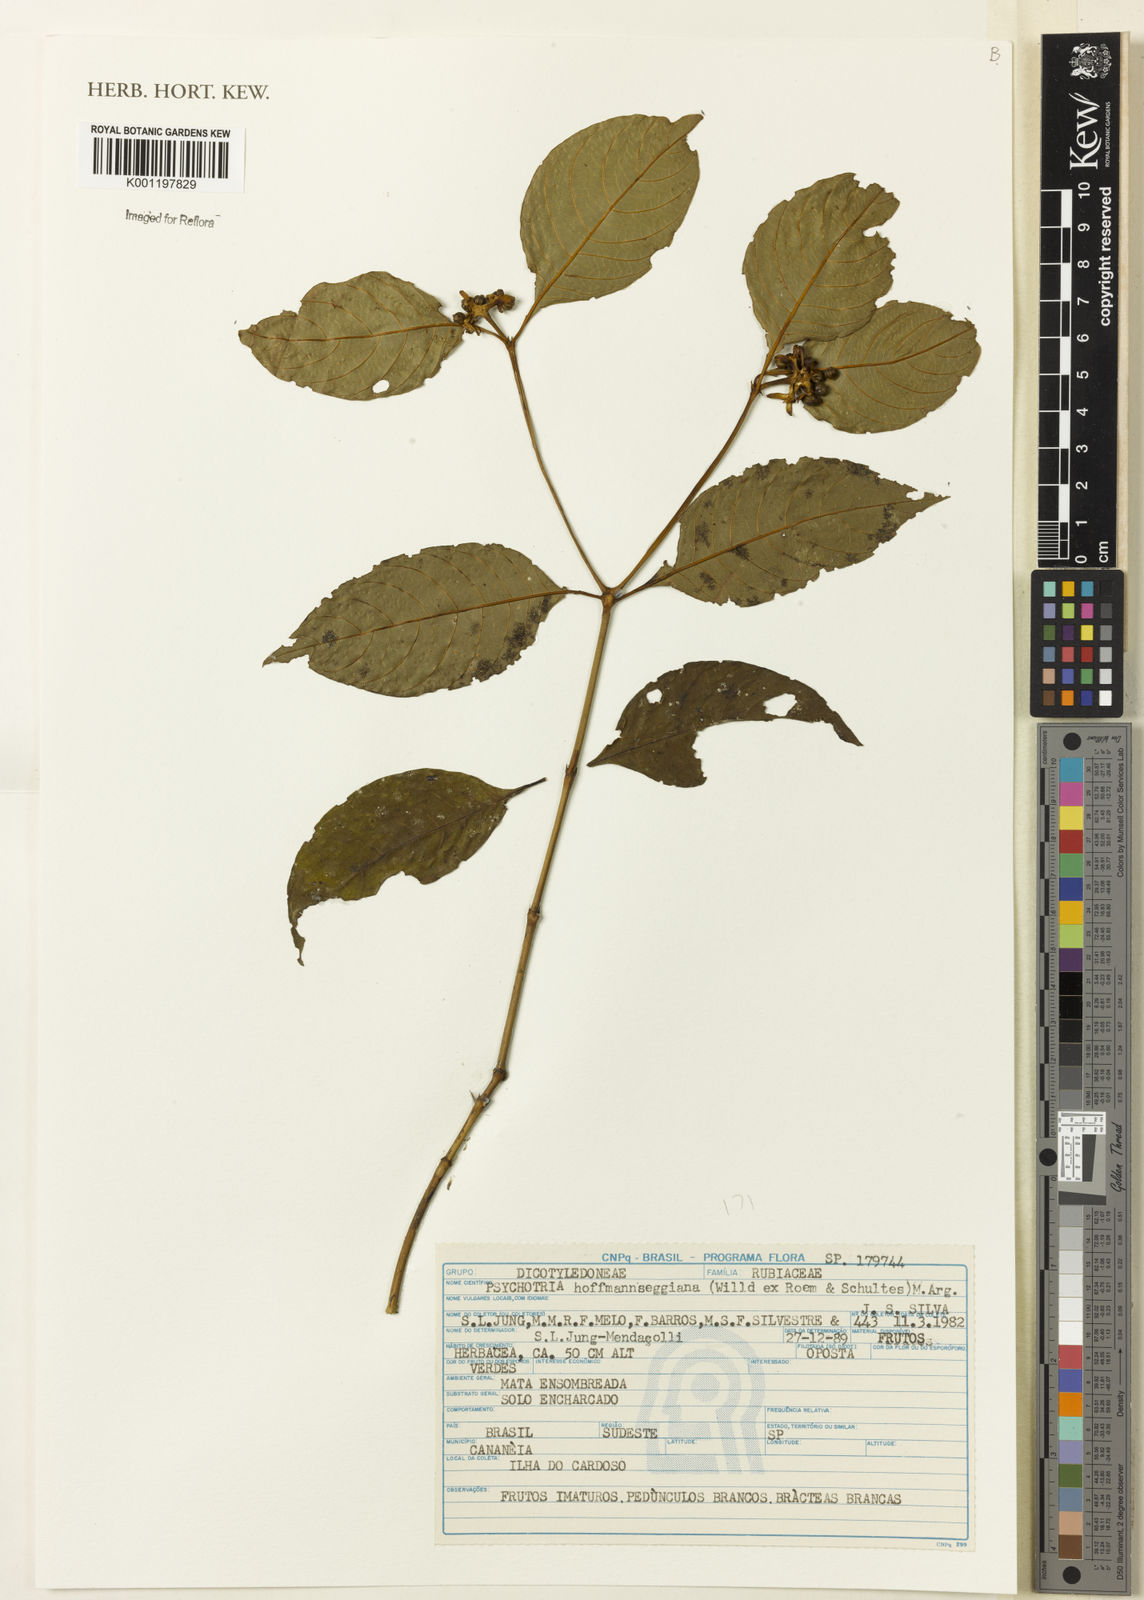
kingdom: Plantae
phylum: Tracheophyta
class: Magnoliopsida
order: Gentianales
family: Rubiaceae
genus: Psychotria
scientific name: Psychotria
